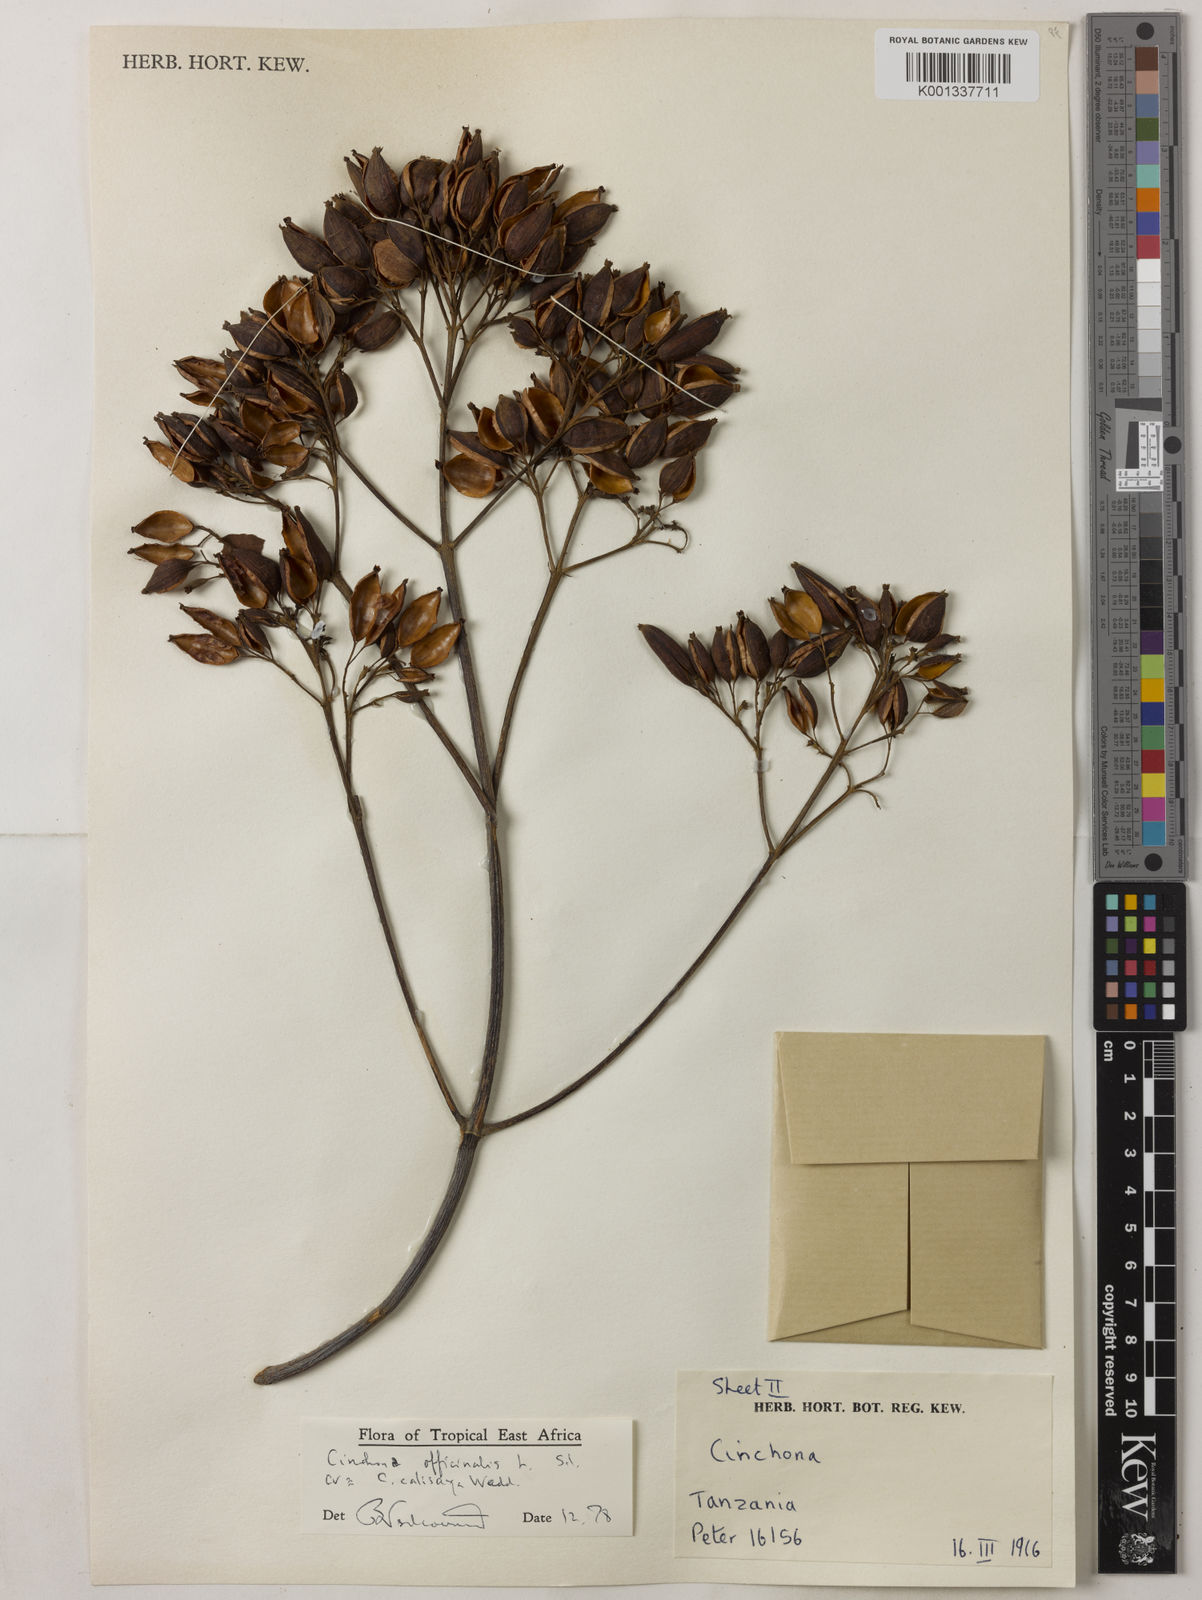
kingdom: Plantae
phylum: Tracheophyta
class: Magnoliopsida
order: Gentianales
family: Rubiaceae
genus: Cinchona
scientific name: Cinchona calisaya
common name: Ledgerbark
